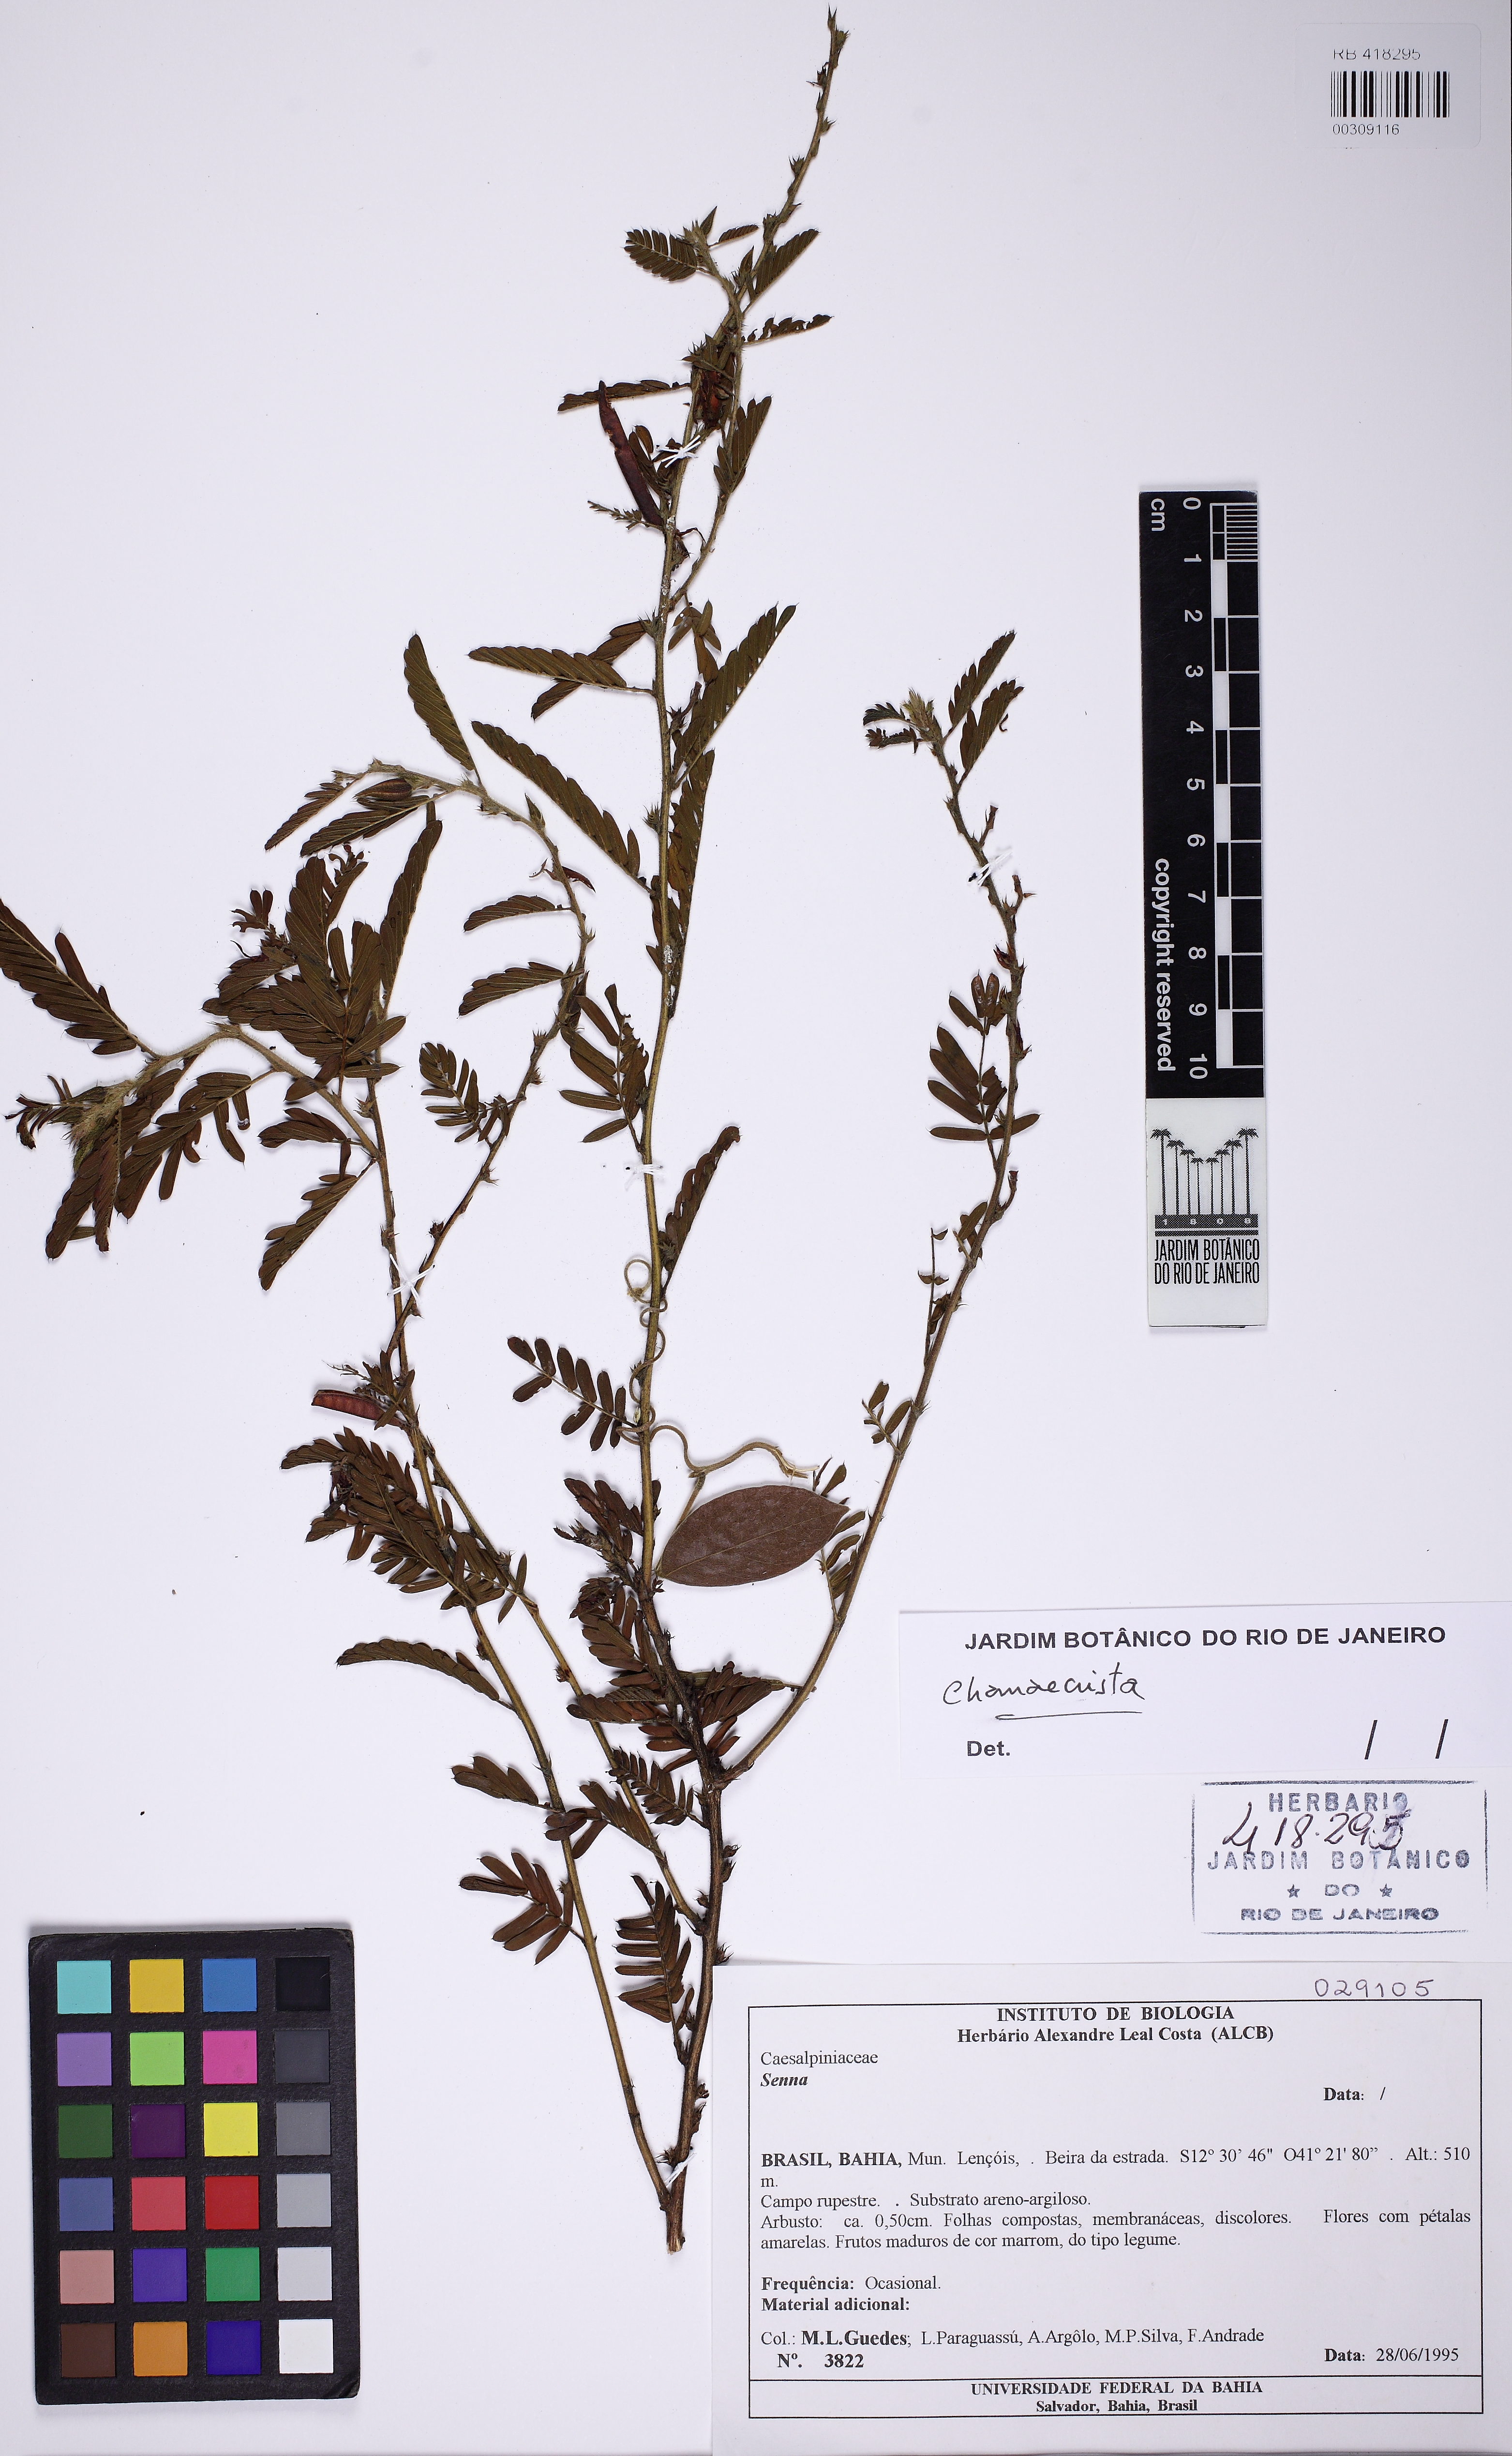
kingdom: Plantae
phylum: Tracheophyta
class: Magnoliopsida
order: Fabales
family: Fabaceae
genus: Chamaecrista
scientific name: Chamaecrista
